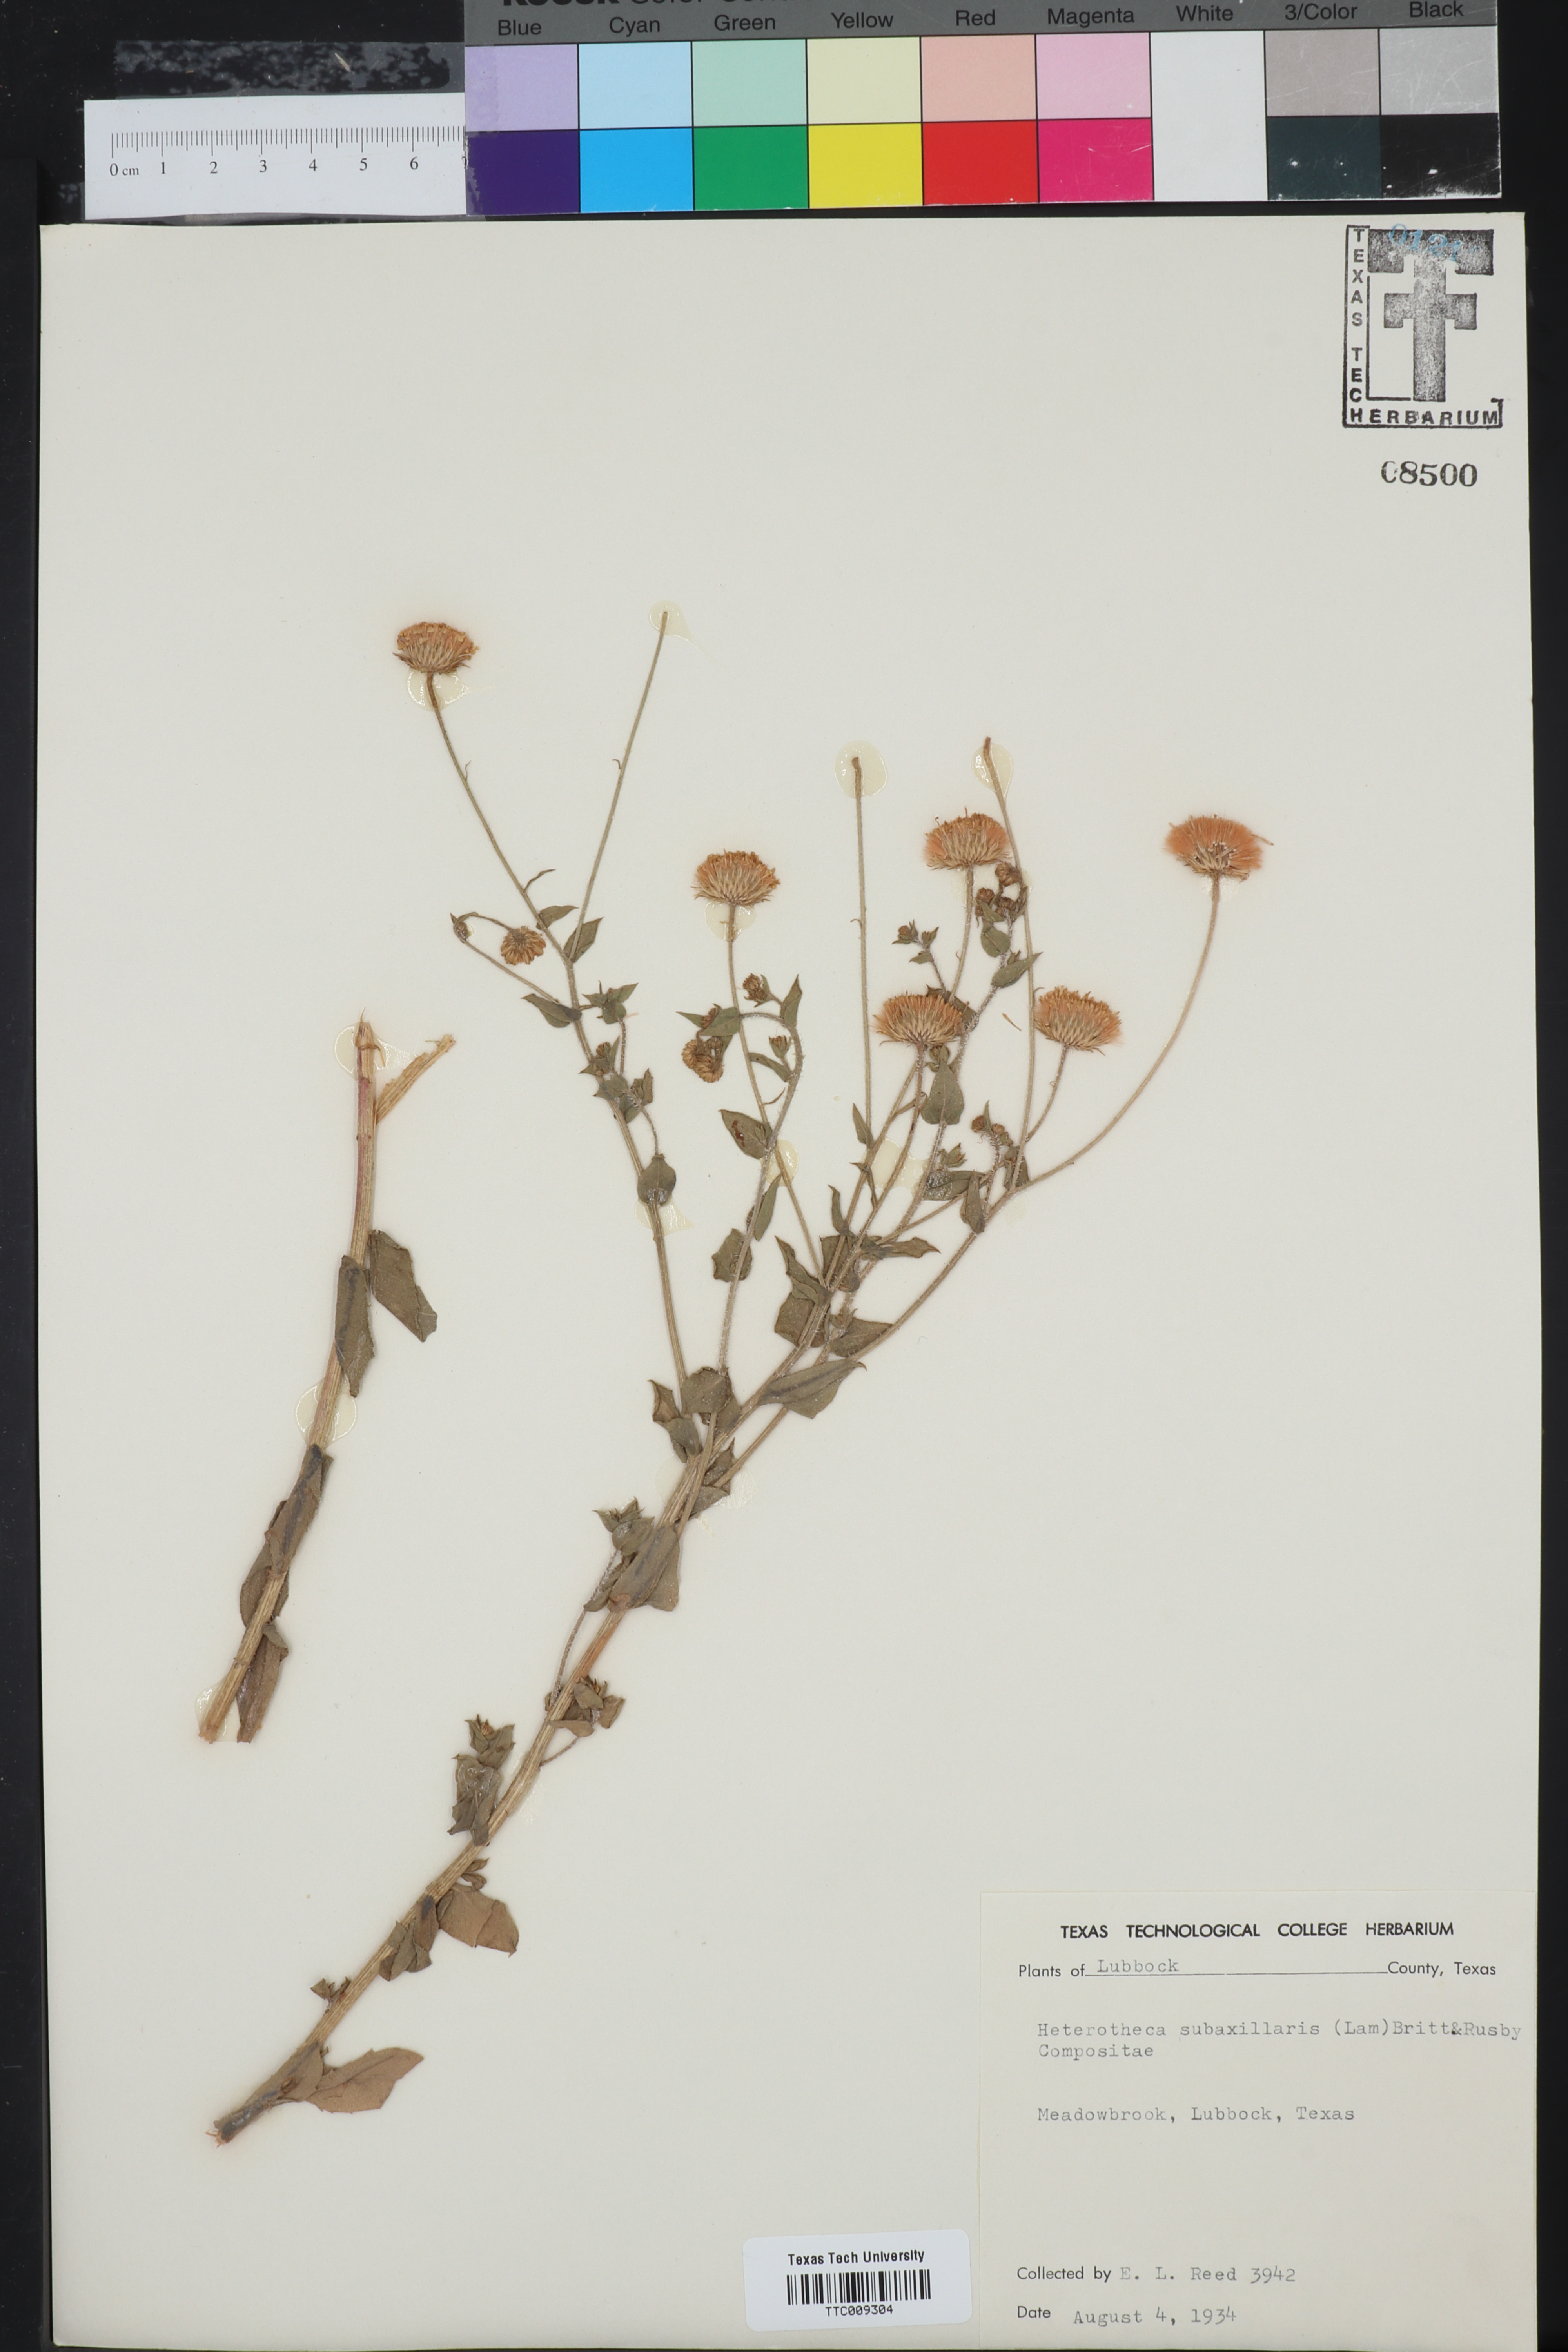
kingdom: Plantae
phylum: Tracheophyta
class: Magnoliopsida
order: Asterales
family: Asteraceae
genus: Heterotheca
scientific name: Heterotheca subaxillaris
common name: Camphorweed
